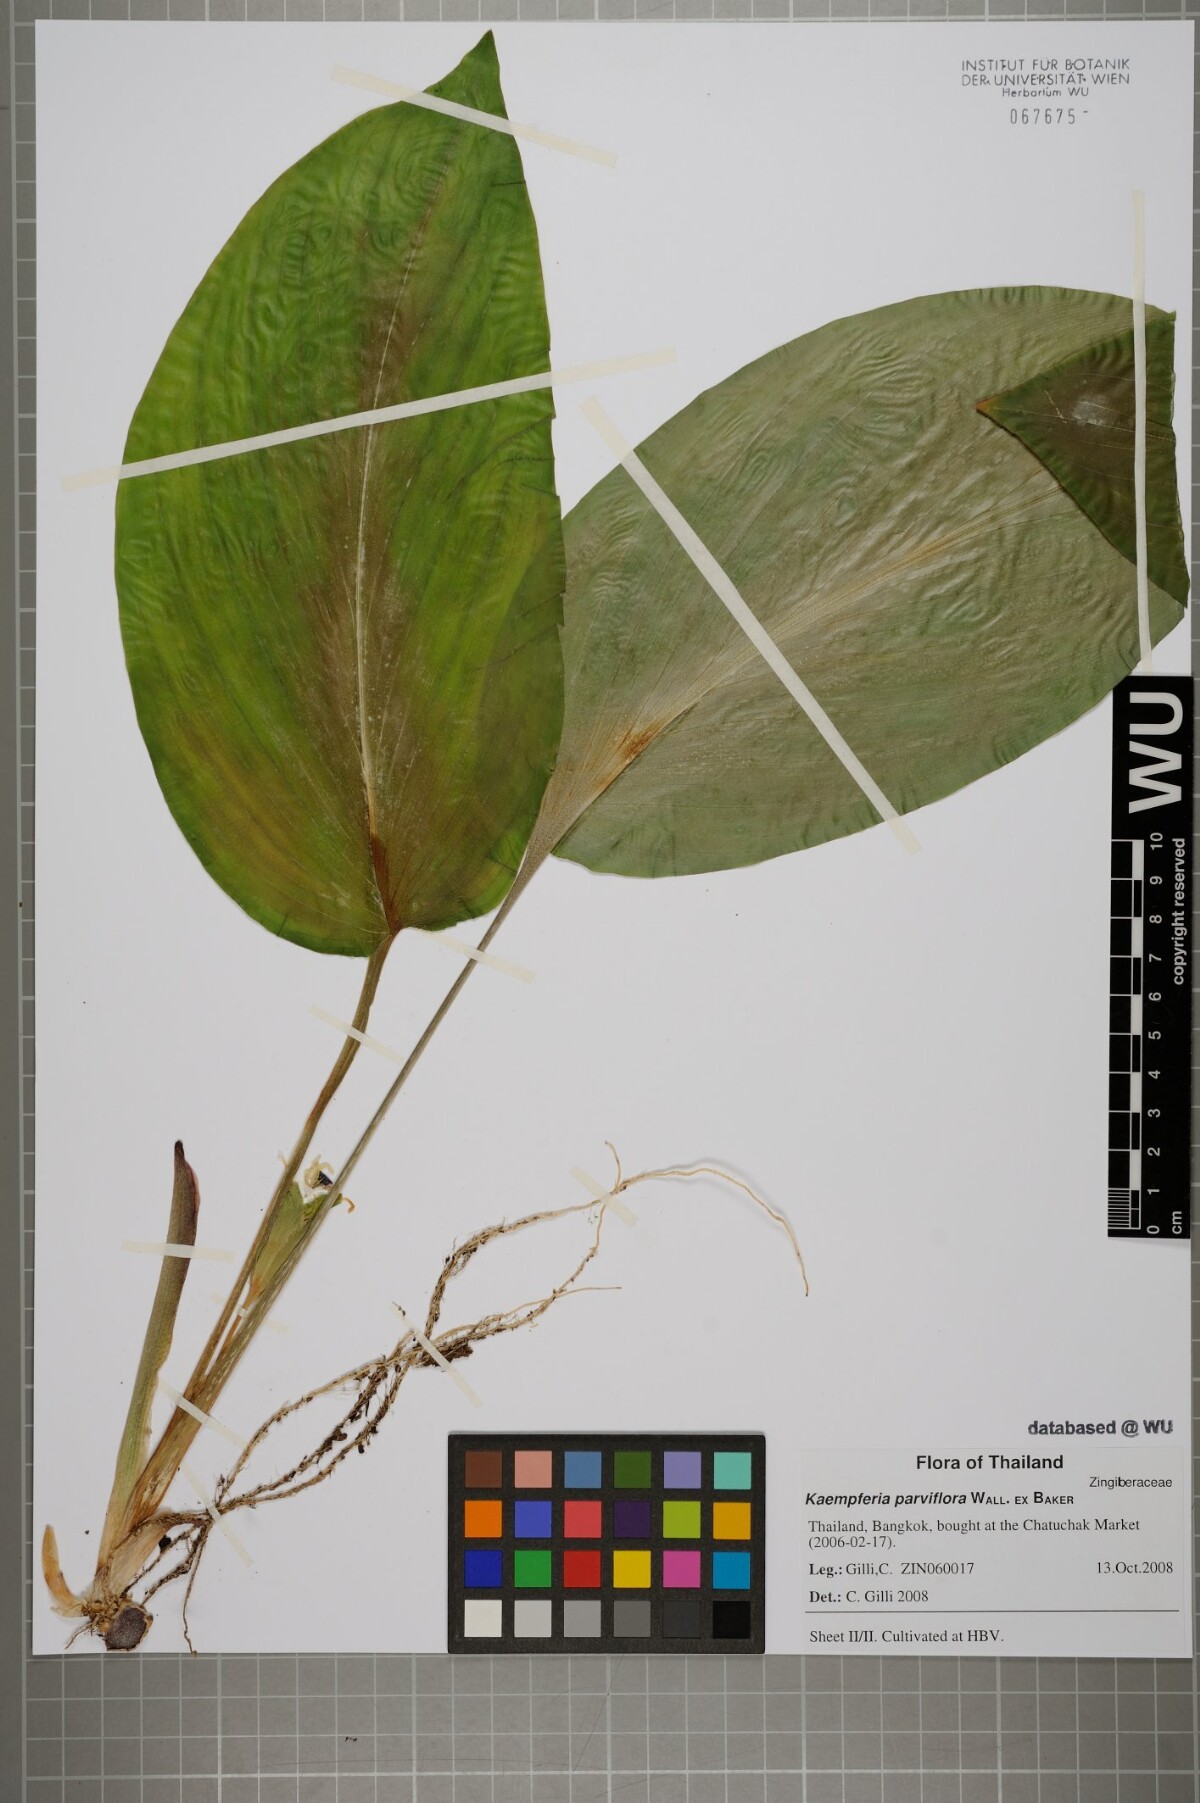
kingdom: Plantae
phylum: Tracheophyta
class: Liliopsida
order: Zingiberales
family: Zingiberaceae
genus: Kaempferia
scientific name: Kaempferia parviflora
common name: Black galingale
